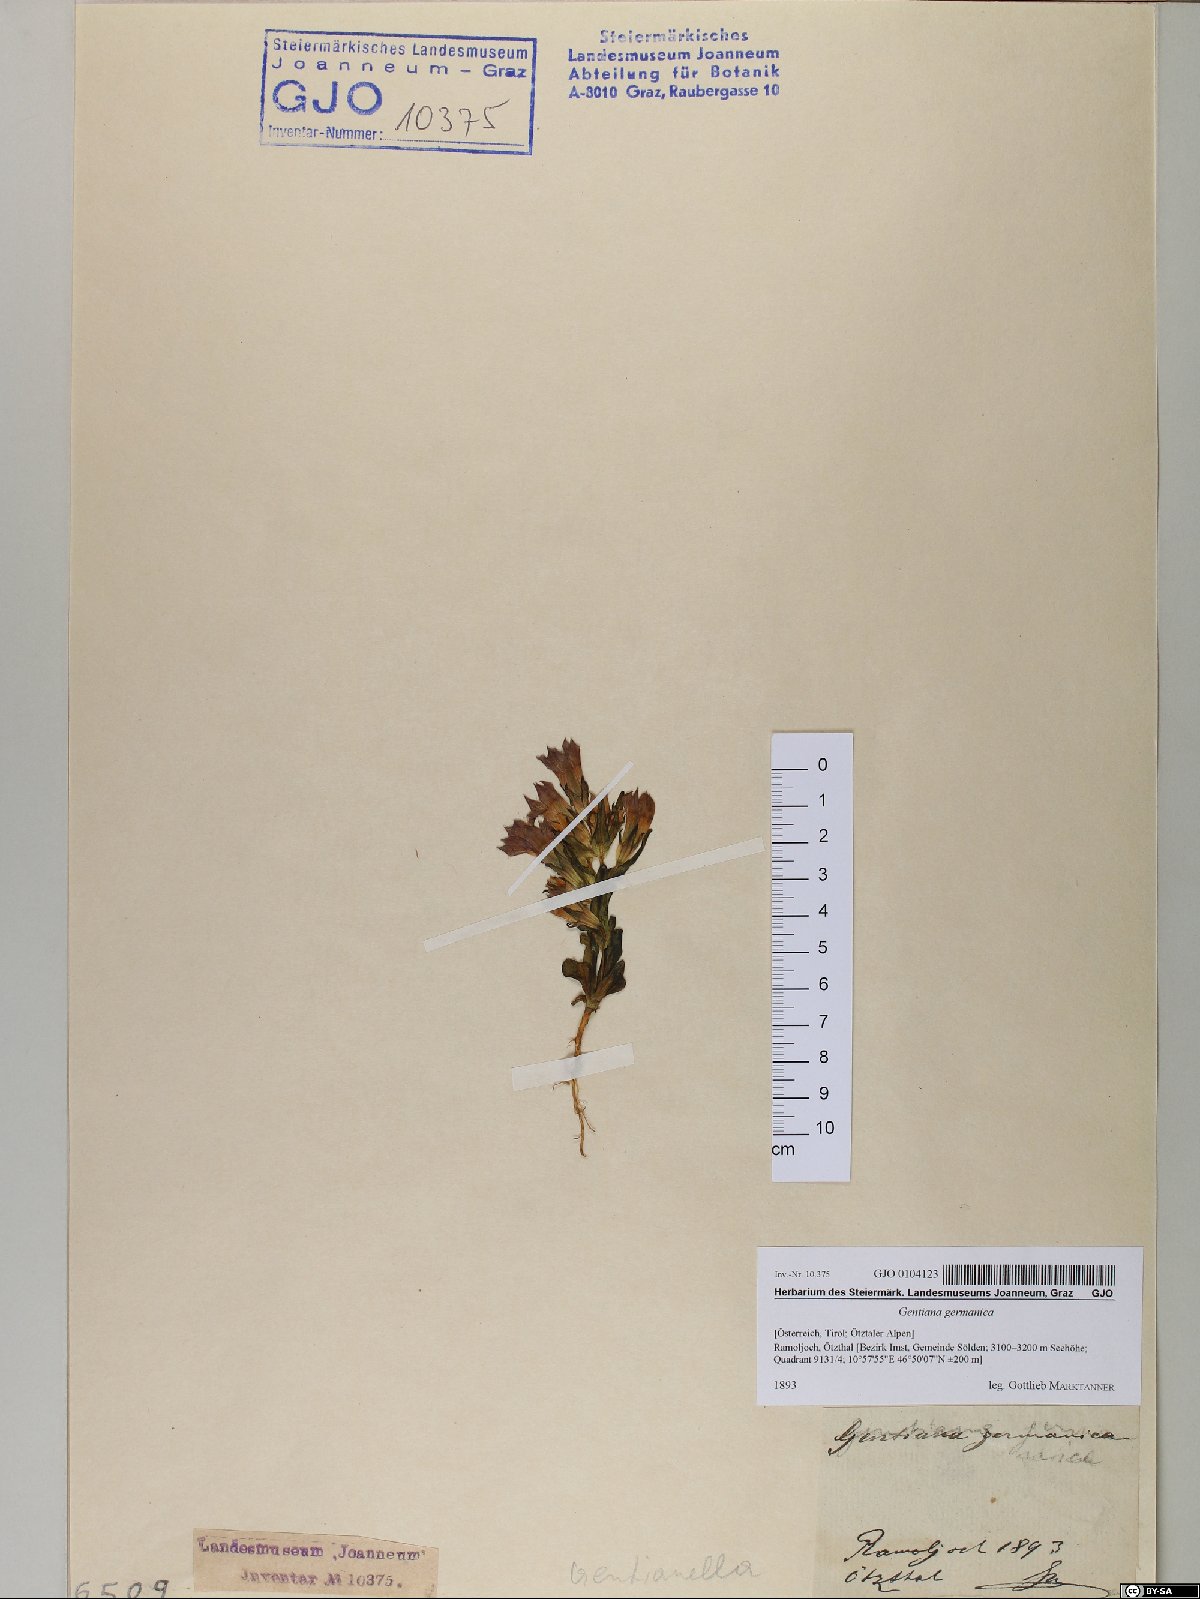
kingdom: Plantae
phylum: Tracheophyta
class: Magnoliopsida
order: Gentianales
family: Gentianaceae
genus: Gentianella
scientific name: Gentianella germanica
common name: Chiltern-gentian
